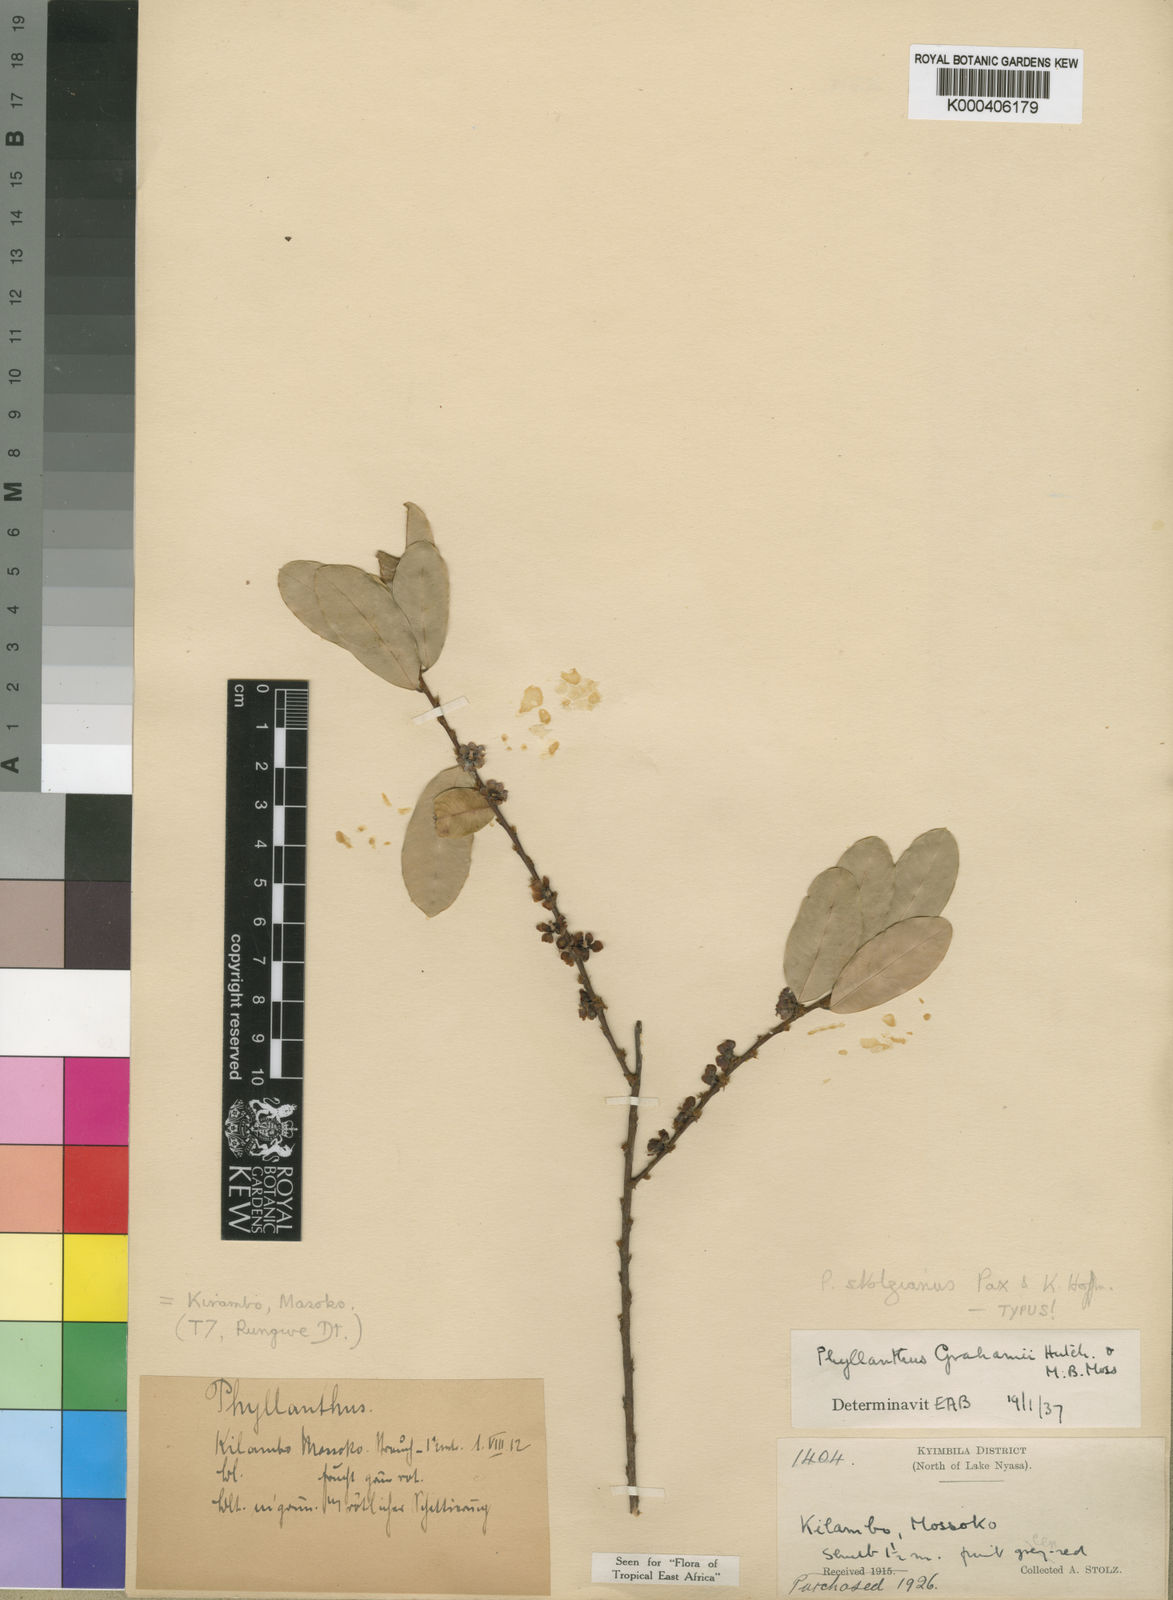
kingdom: Plantae
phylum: Tracheophyta
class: Magnoliopsida
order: Malpighiales
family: Phyllanthaceae
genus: Phyllanthus
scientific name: Phyllanthus welwitschianus
